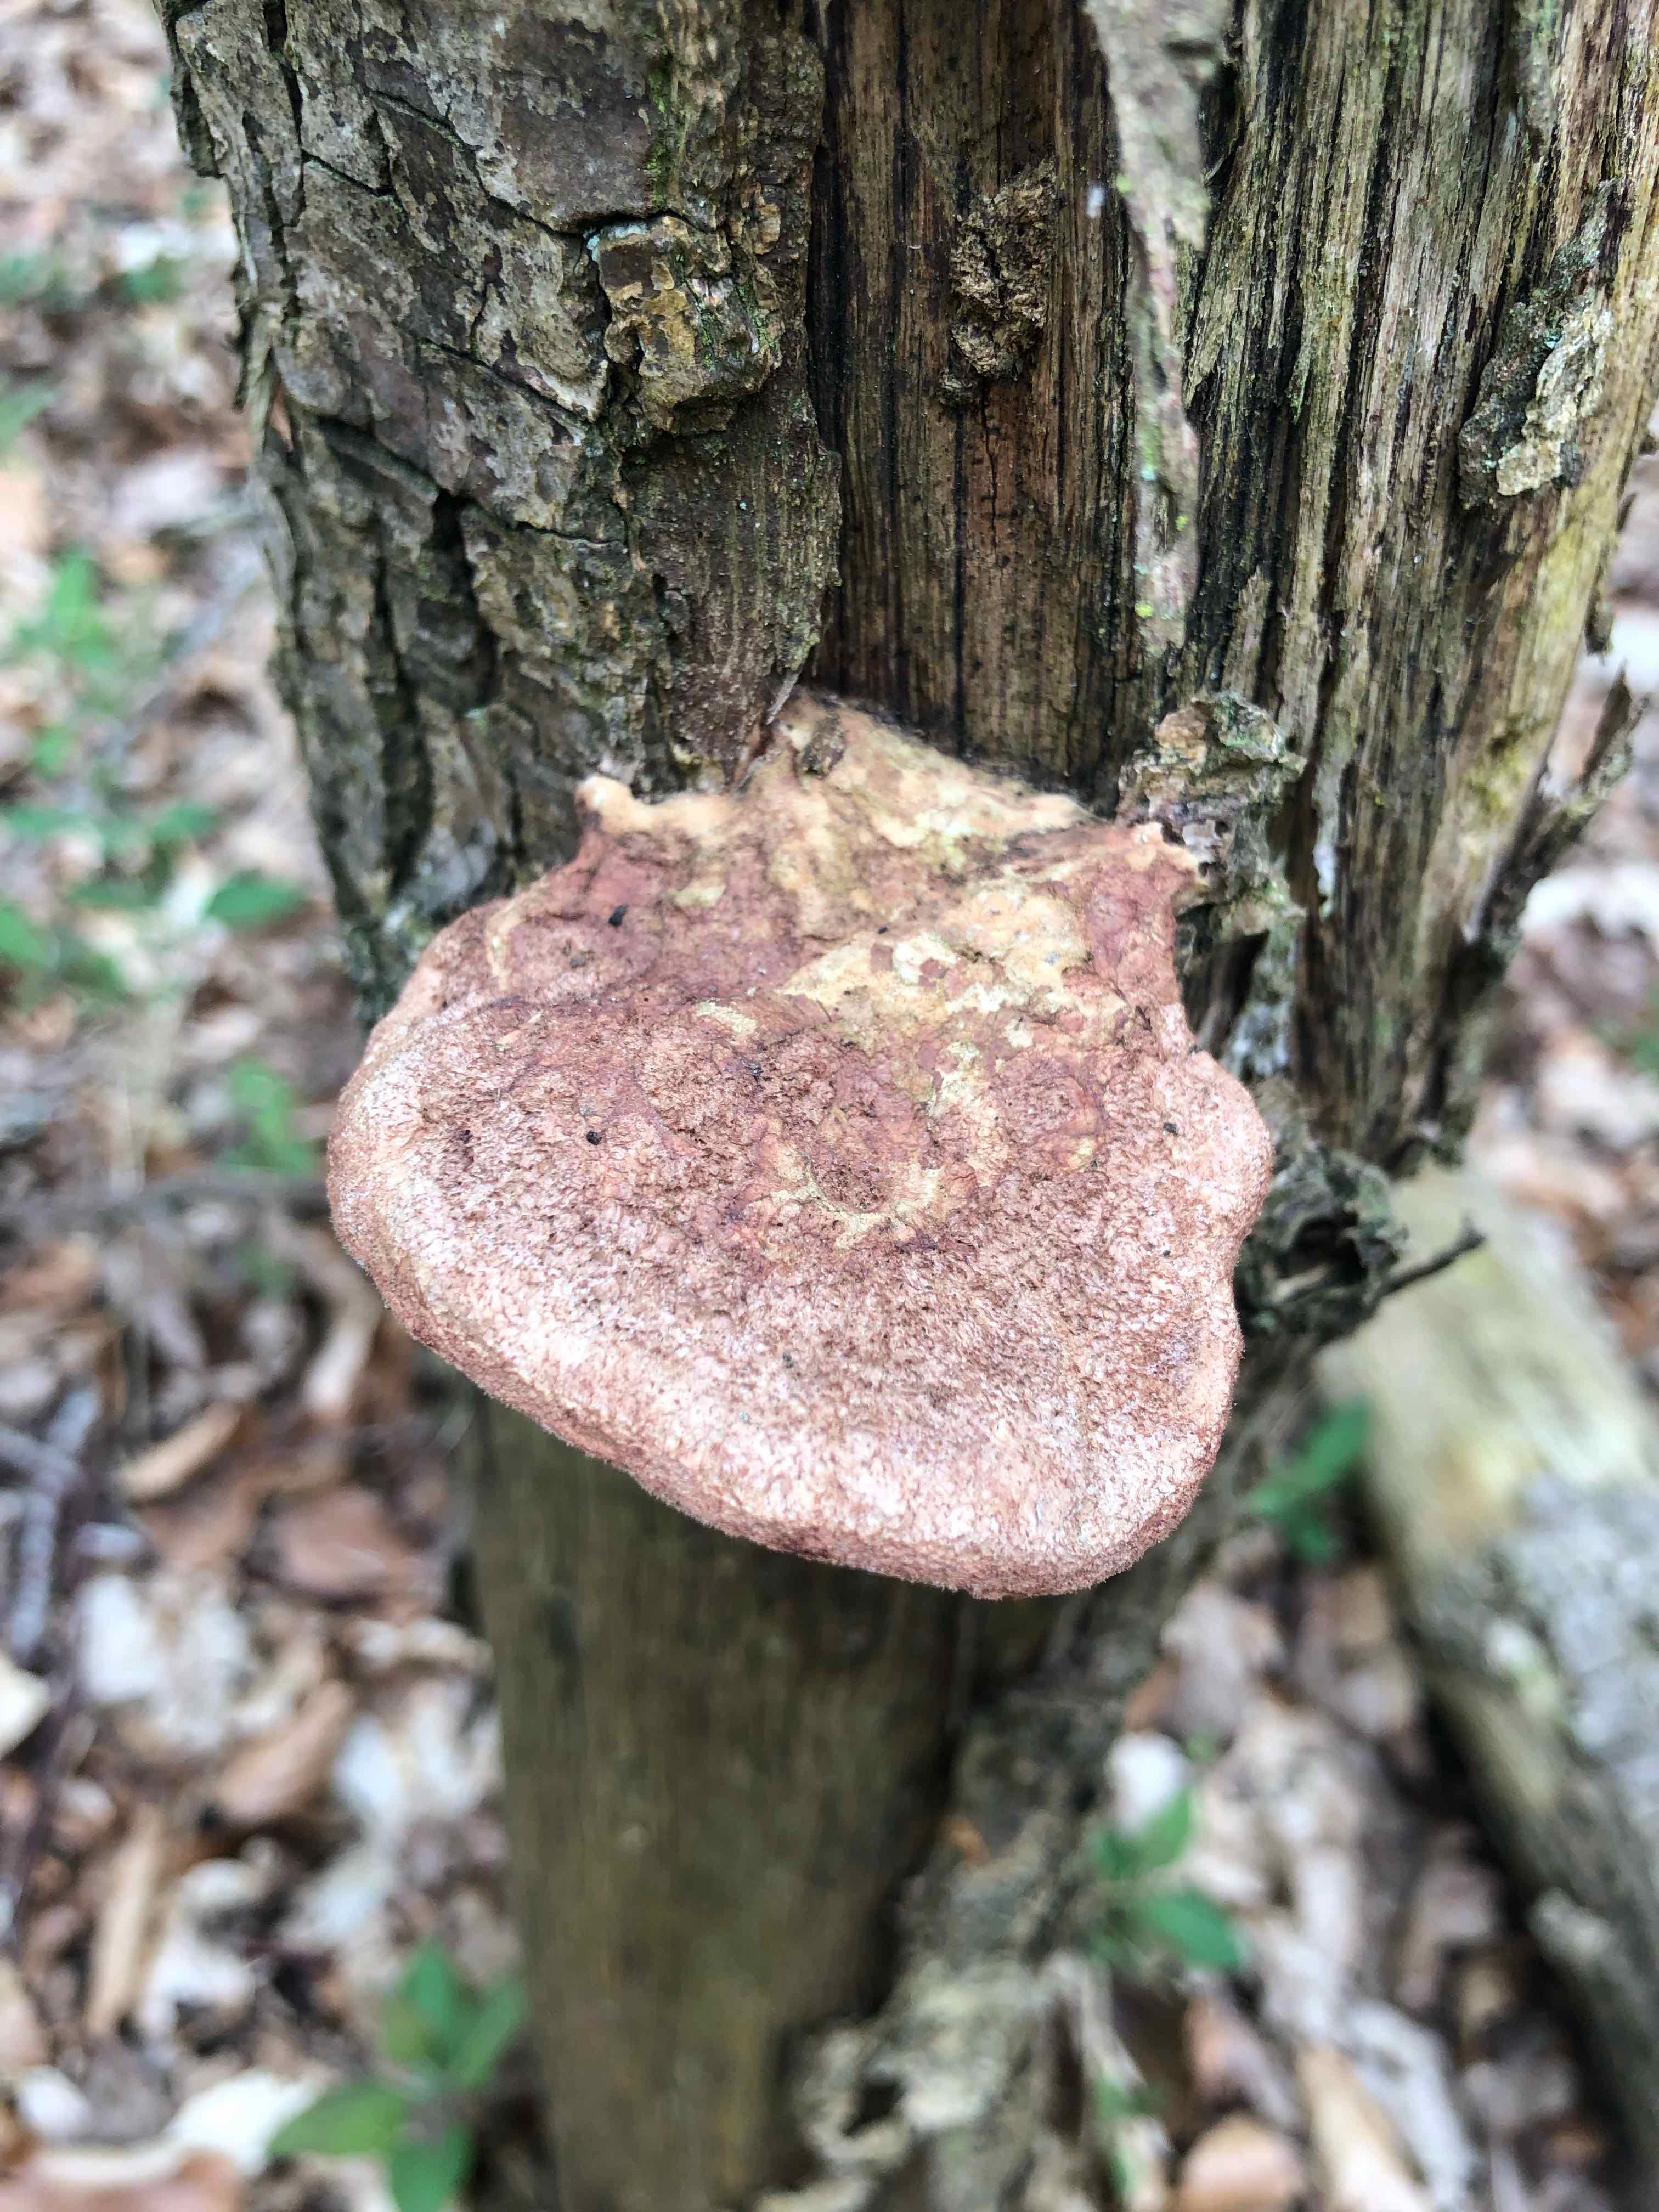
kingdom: Fungi
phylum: Basidiomycota
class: Agaricomycetes
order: Polyporales
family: Phanerochaetaceae
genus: Hapalopilus
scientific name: Hapalopilus rutilans
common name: rødlig okkerporesvamp
